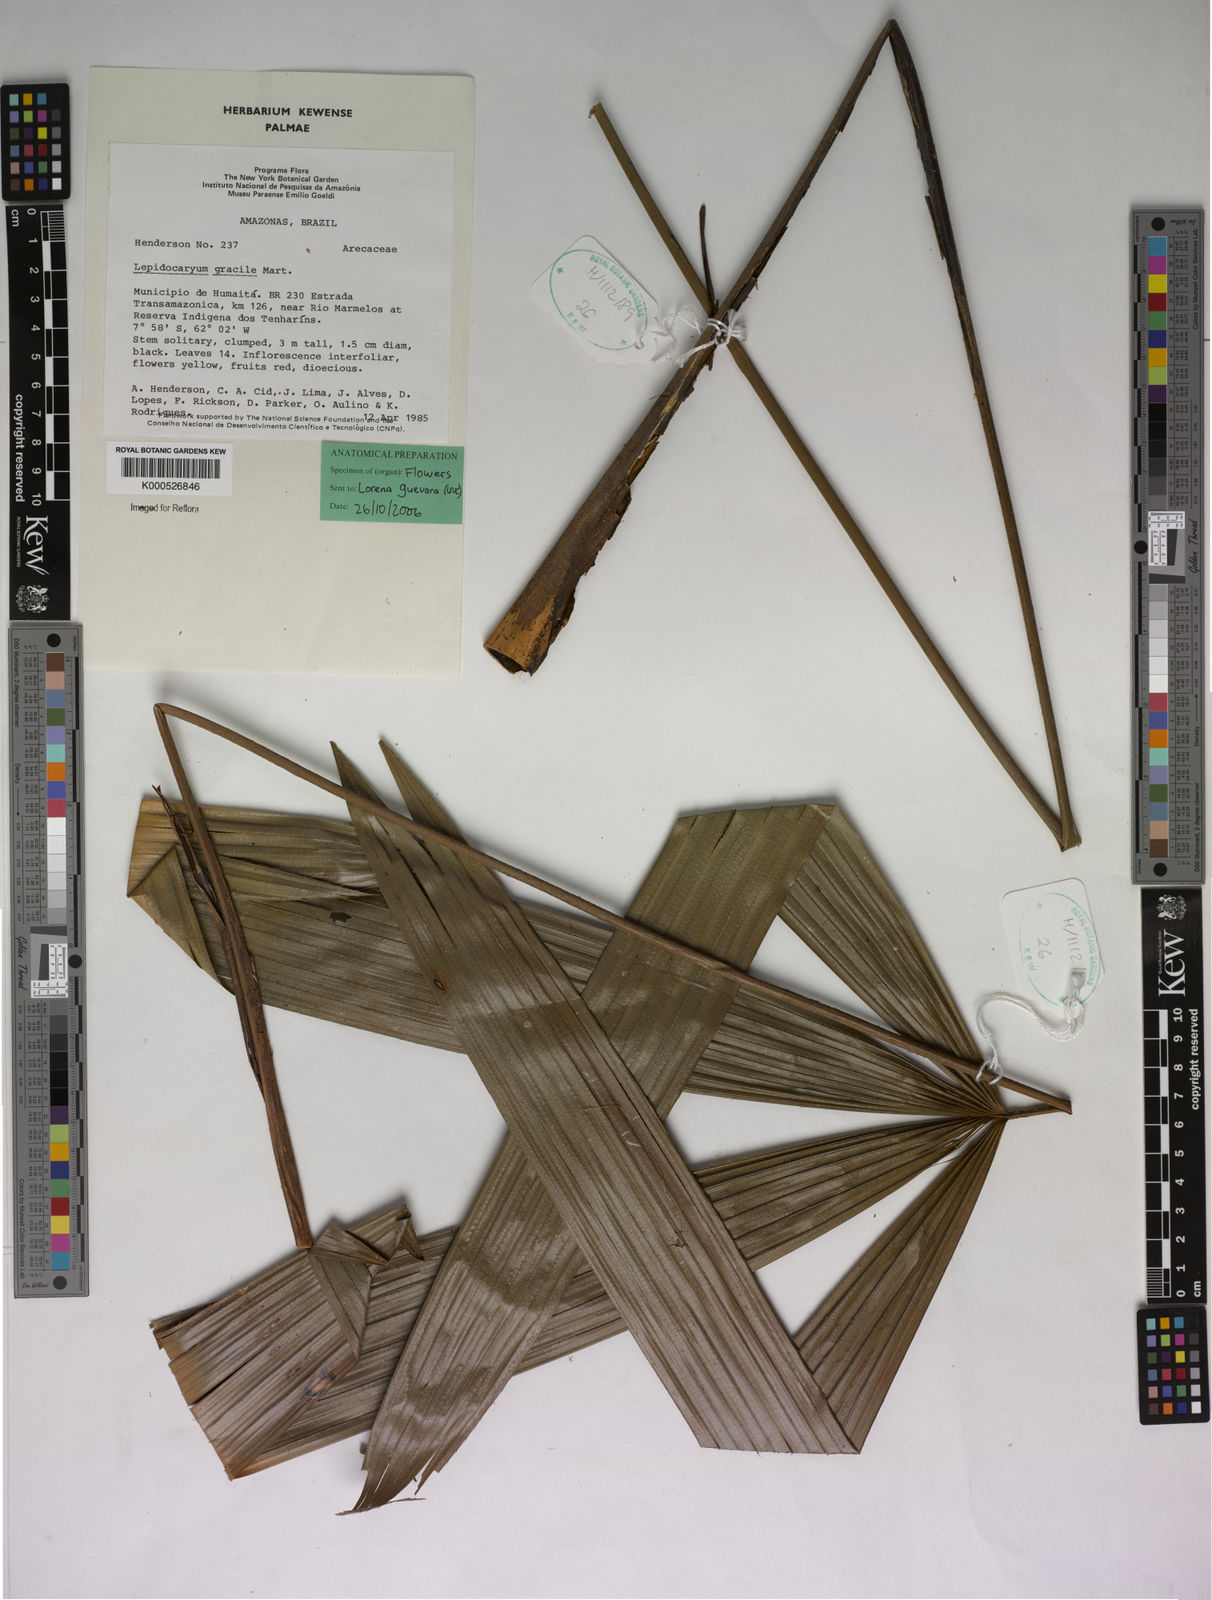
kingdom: Plantae
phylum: Tracheophyta
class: Liliopsida
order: Arecales
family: Arecaceae
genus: Lepidocaryum
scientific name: Lepidocaryum tenue
